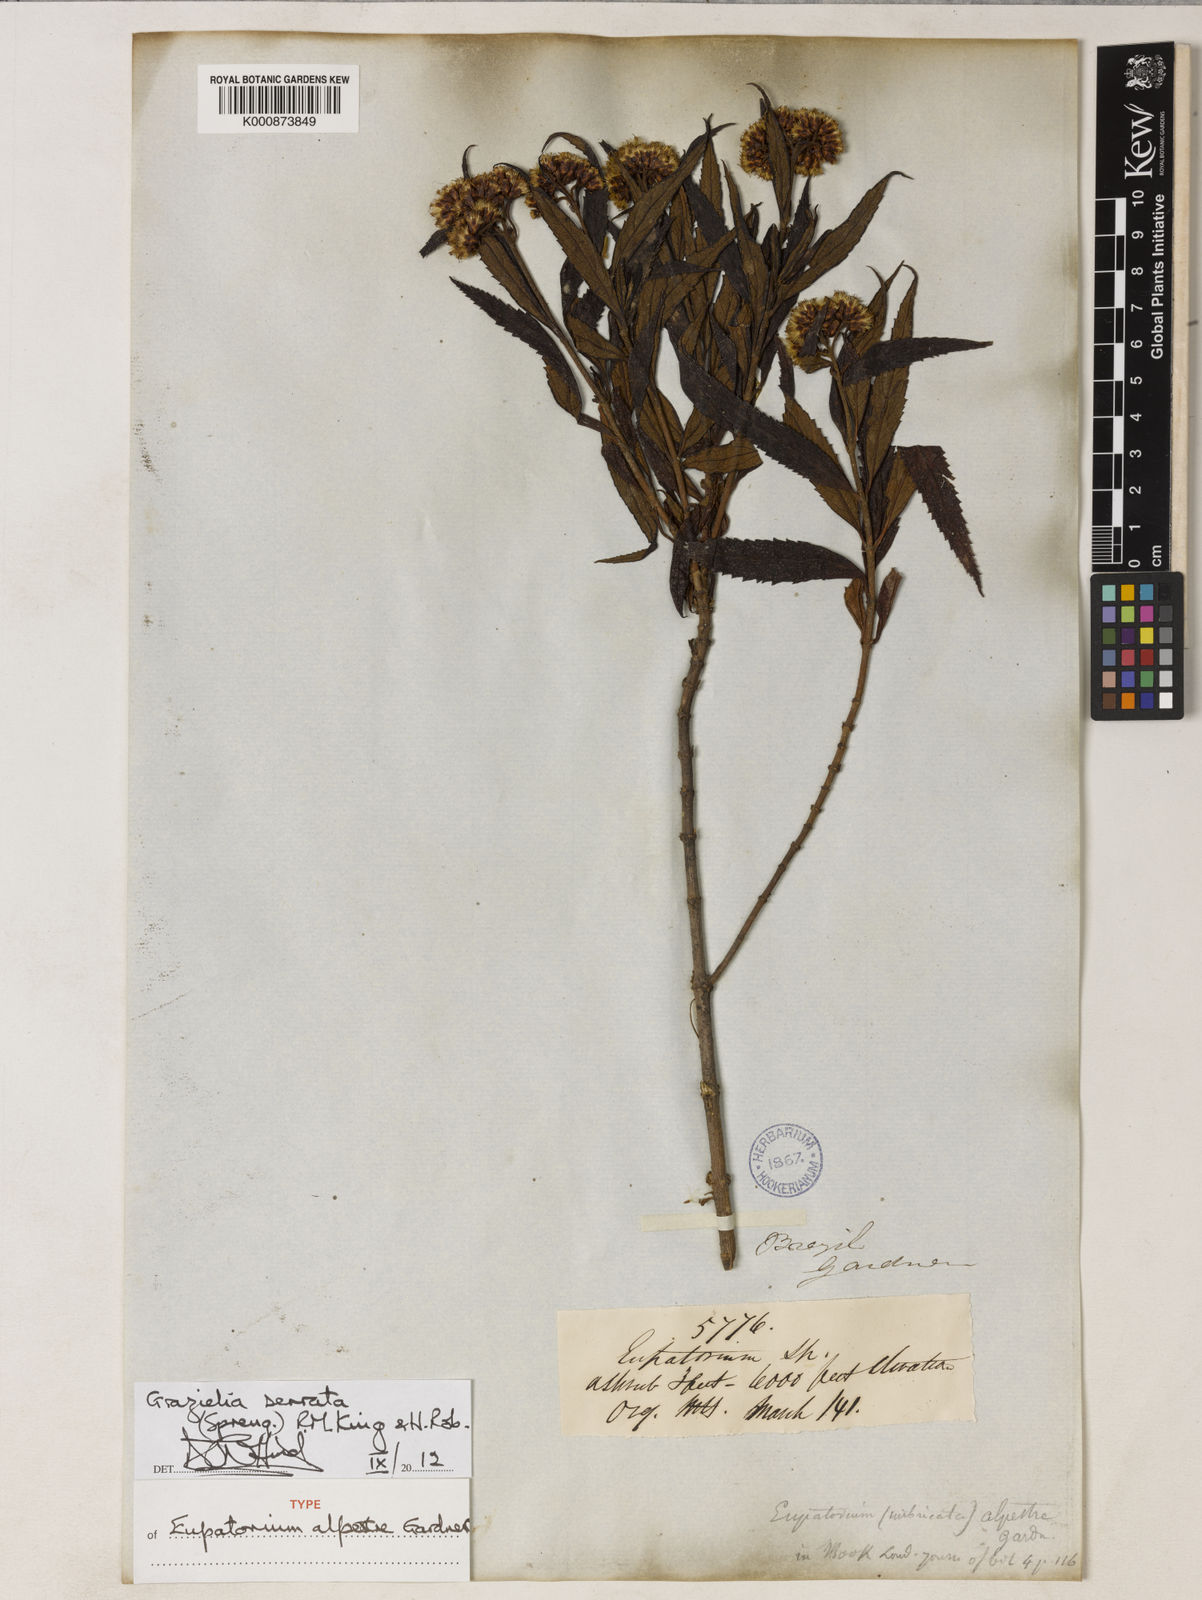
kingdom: Plantae
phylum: Tracheophyta
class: Magnoliopsida
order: Asterales
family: Asteraceae
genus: Grazielia
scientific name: Grazielia serrata
